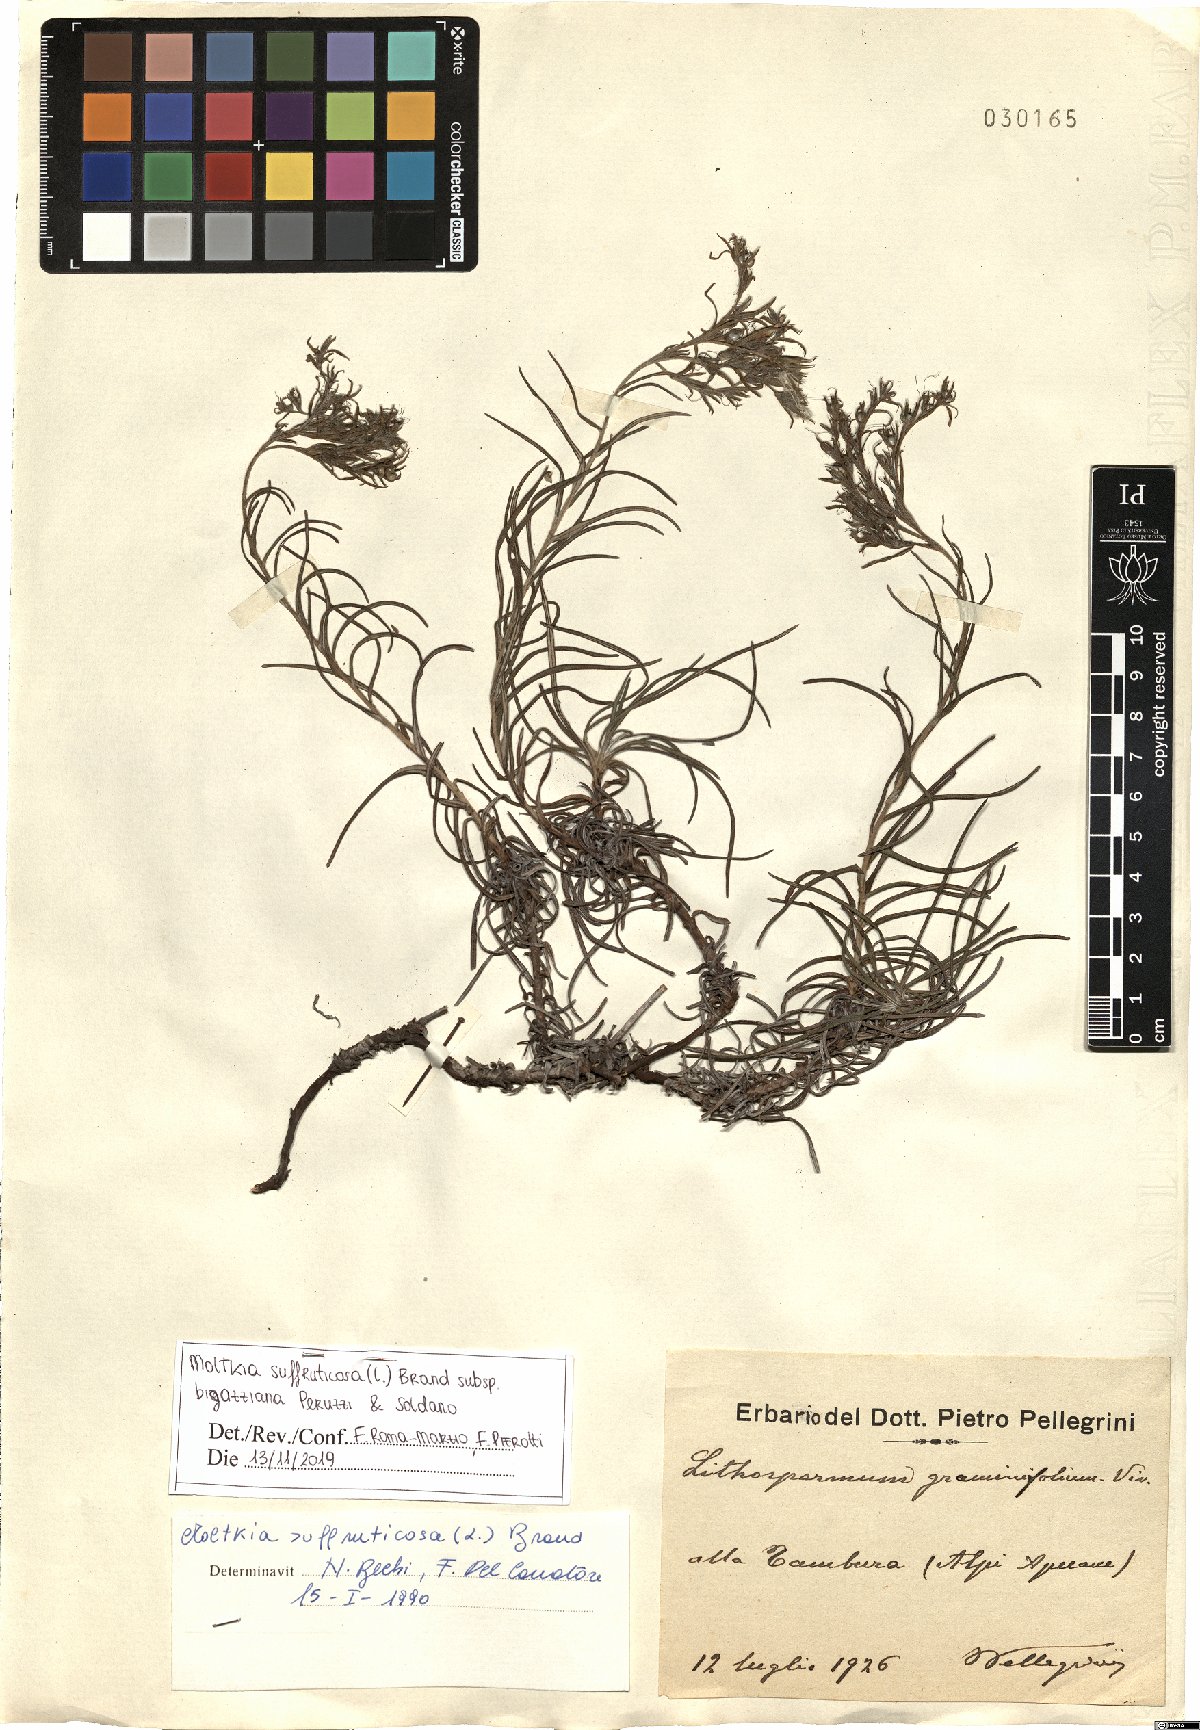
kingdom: Plantae
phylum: Tracheophyta
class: Magnoliopsida
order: Boraginales
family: Boraginaceae
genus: Moltkia
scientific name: Moltkia suffruticosa
